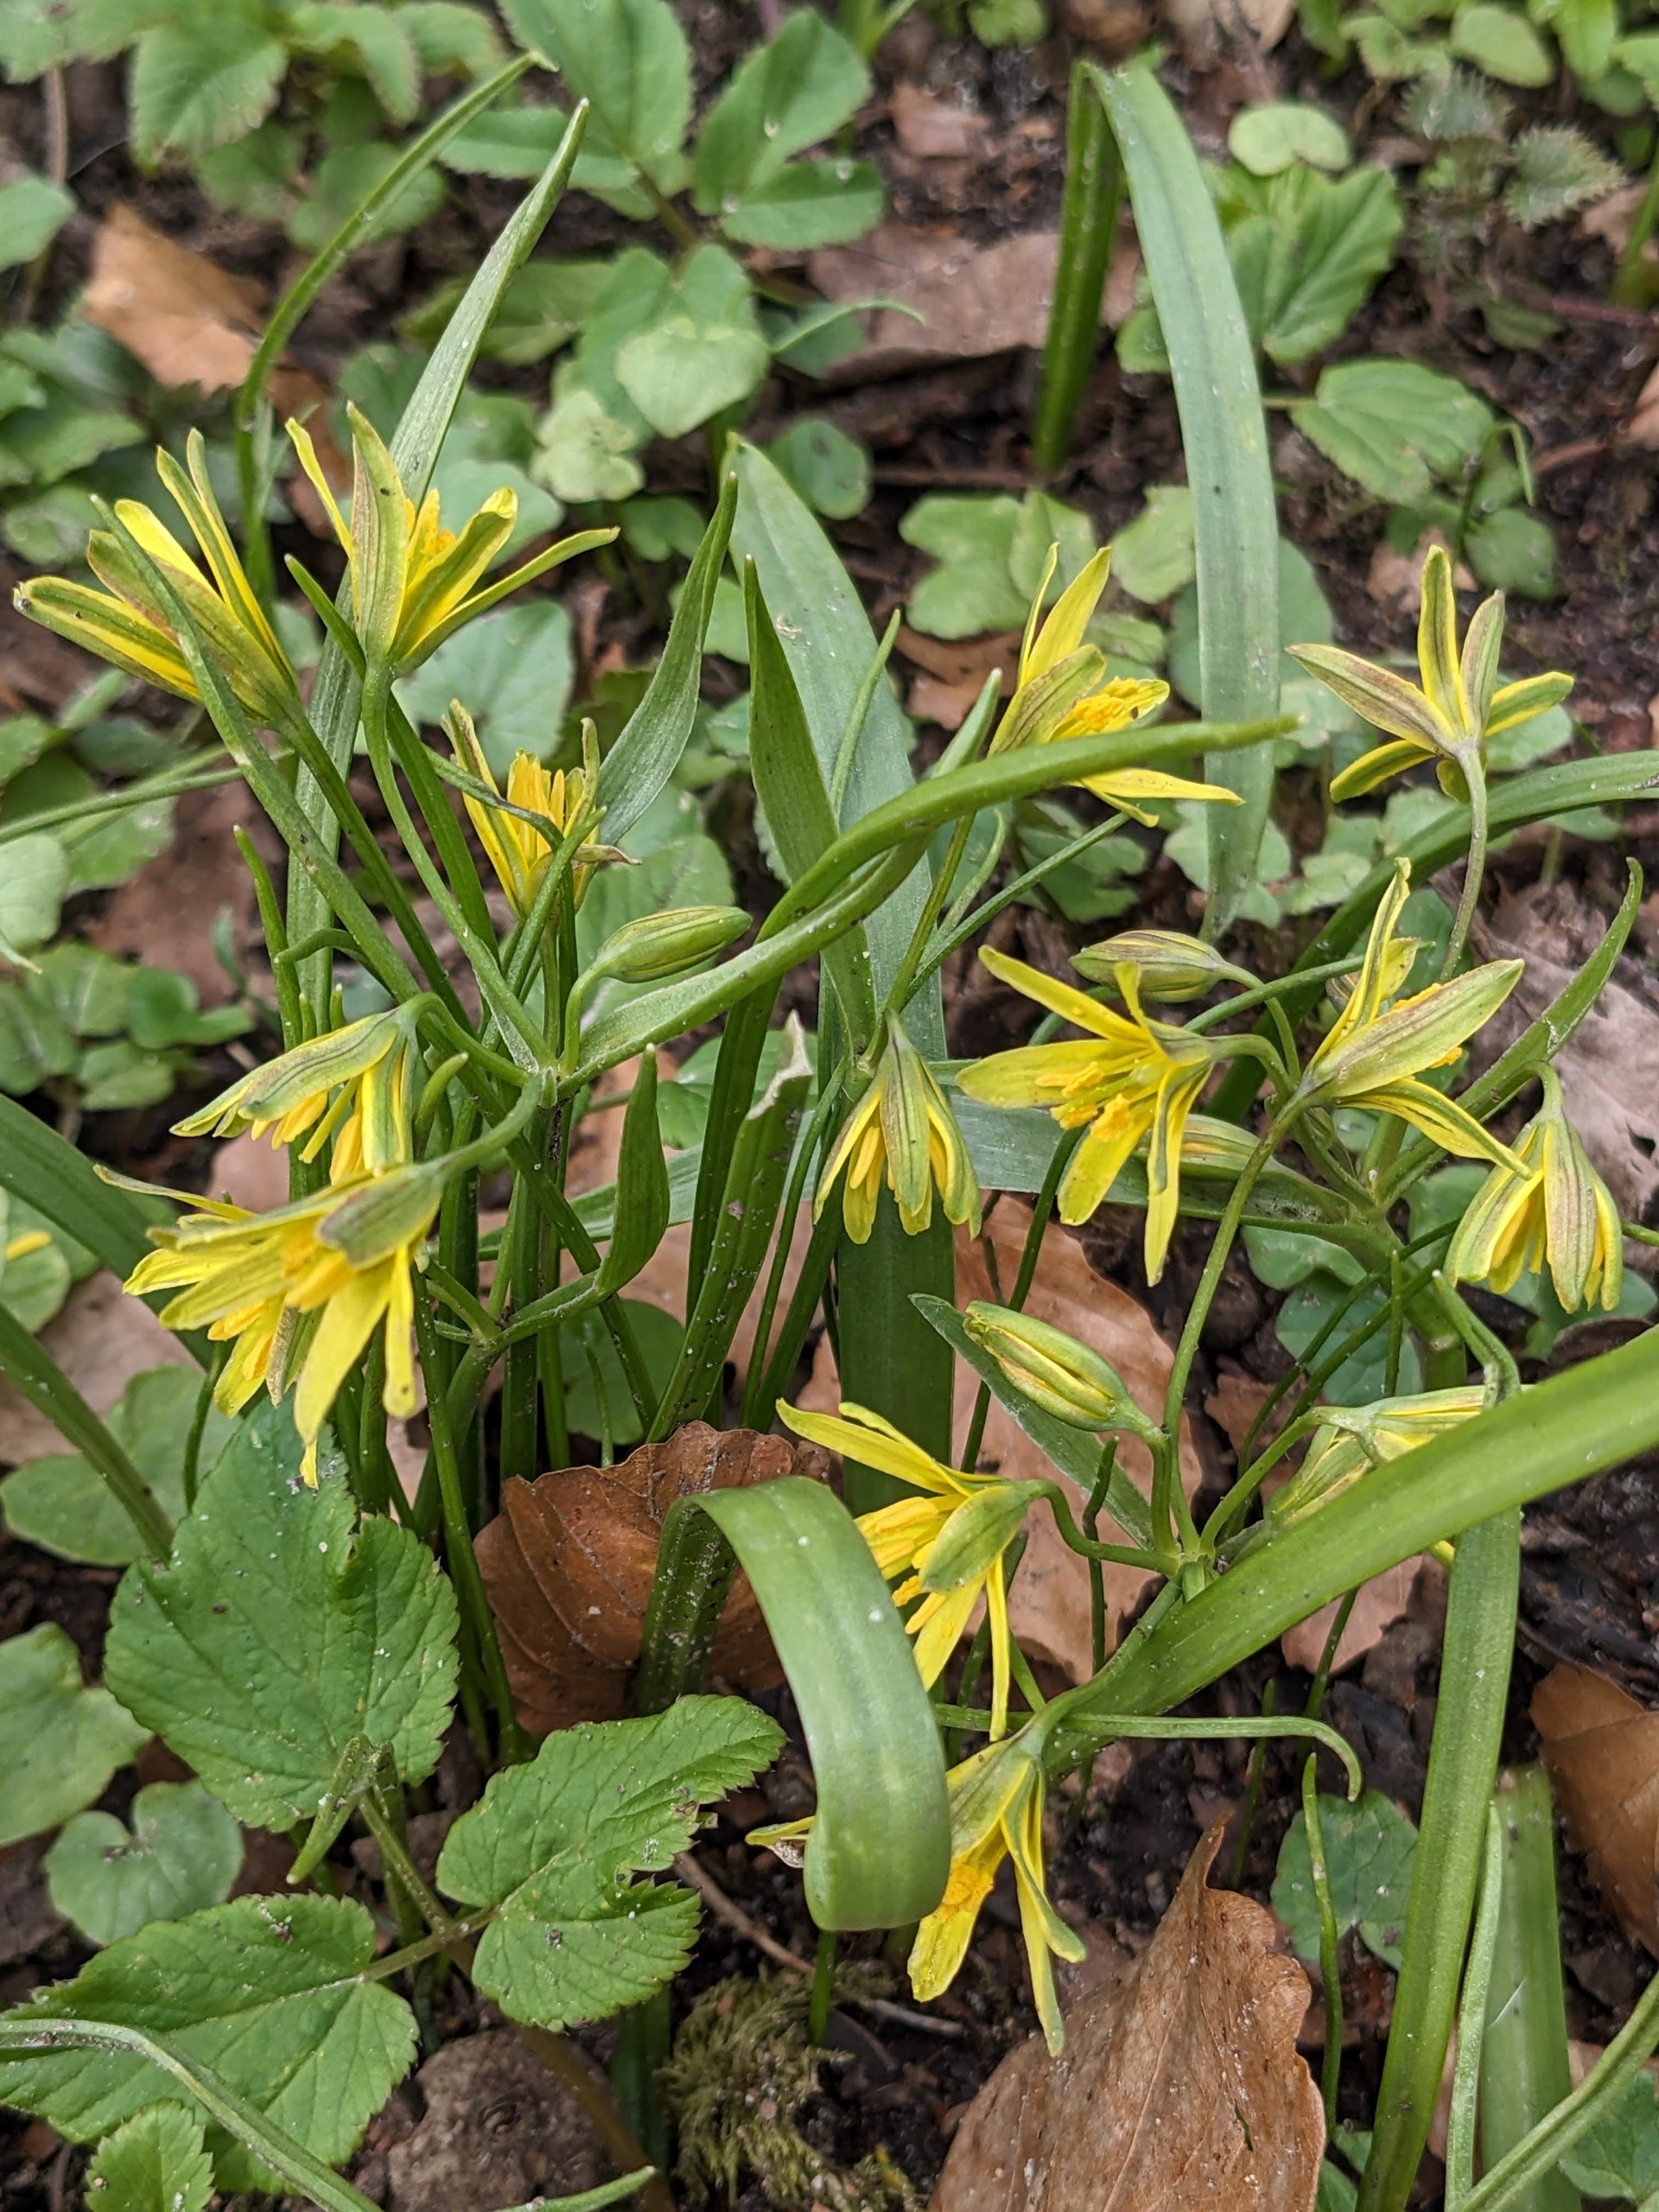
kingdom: Plantae
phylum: Tracheophyta
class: Liliopsida
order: Liliales
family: Liliaceae
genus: Gagea
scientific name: Gagea lutea
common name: Almindelig guldstjerne
